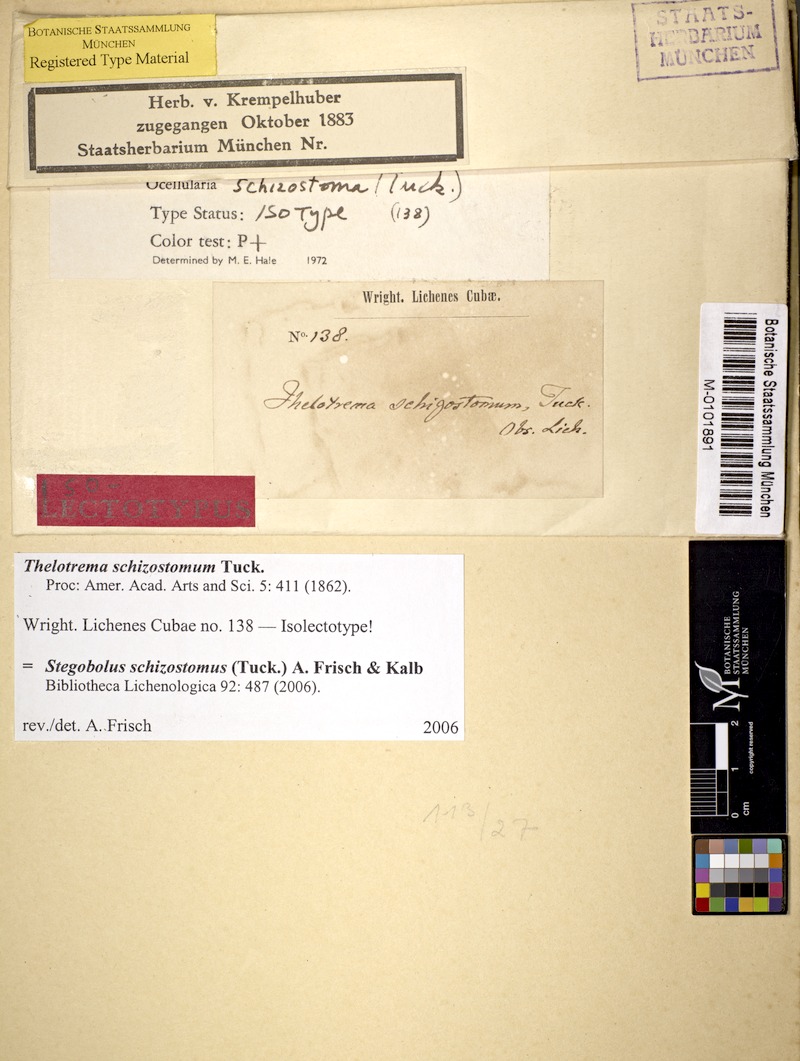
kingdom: Fungi
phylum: Ascomycota
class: Lecanoromycetes
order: Ostropales
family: Graphidaceae
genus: Stegobolus
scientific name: Stegobolus schizostomus
